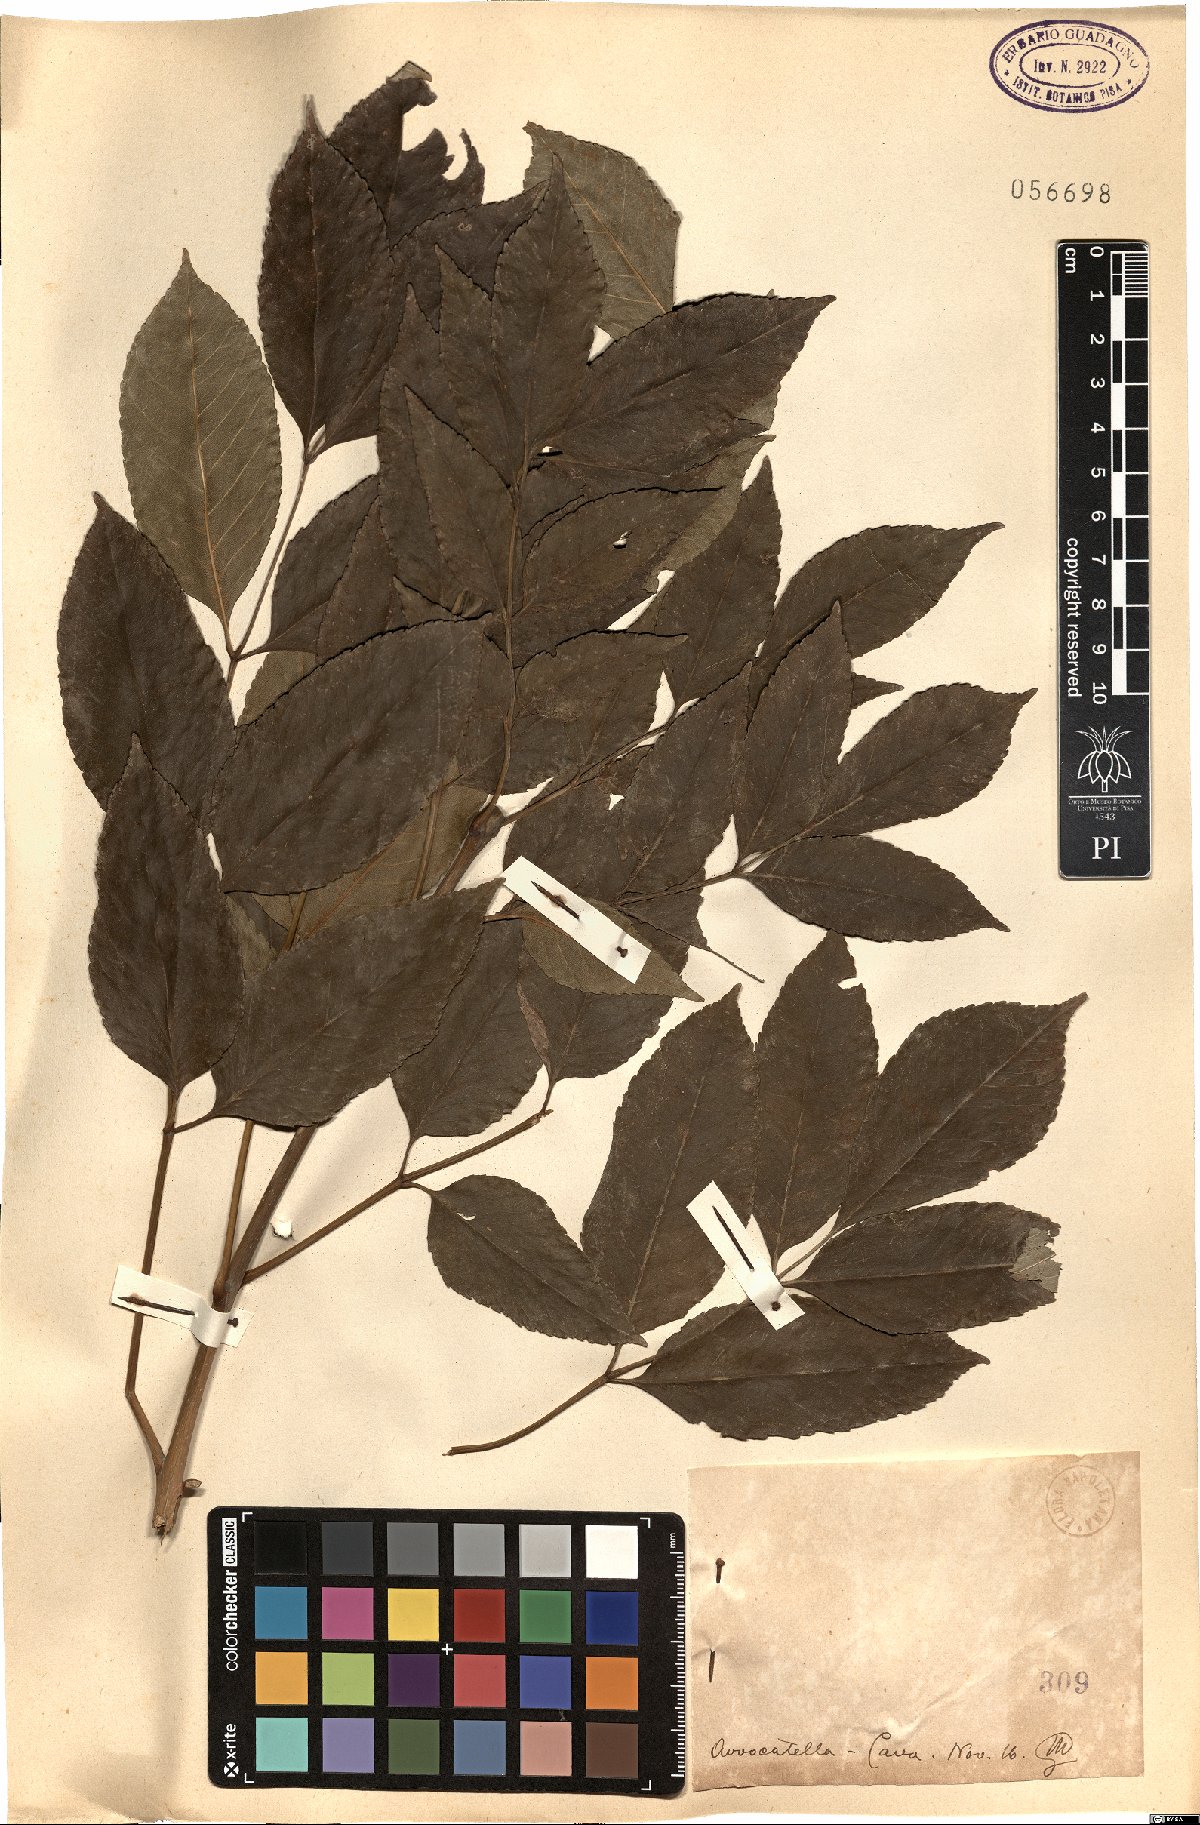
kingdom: Plantae
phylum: Tracheophyta
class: Magnoliopsida
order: Lamiales
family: Oleaceae
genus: Fraxinus
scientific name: Fraxinus
